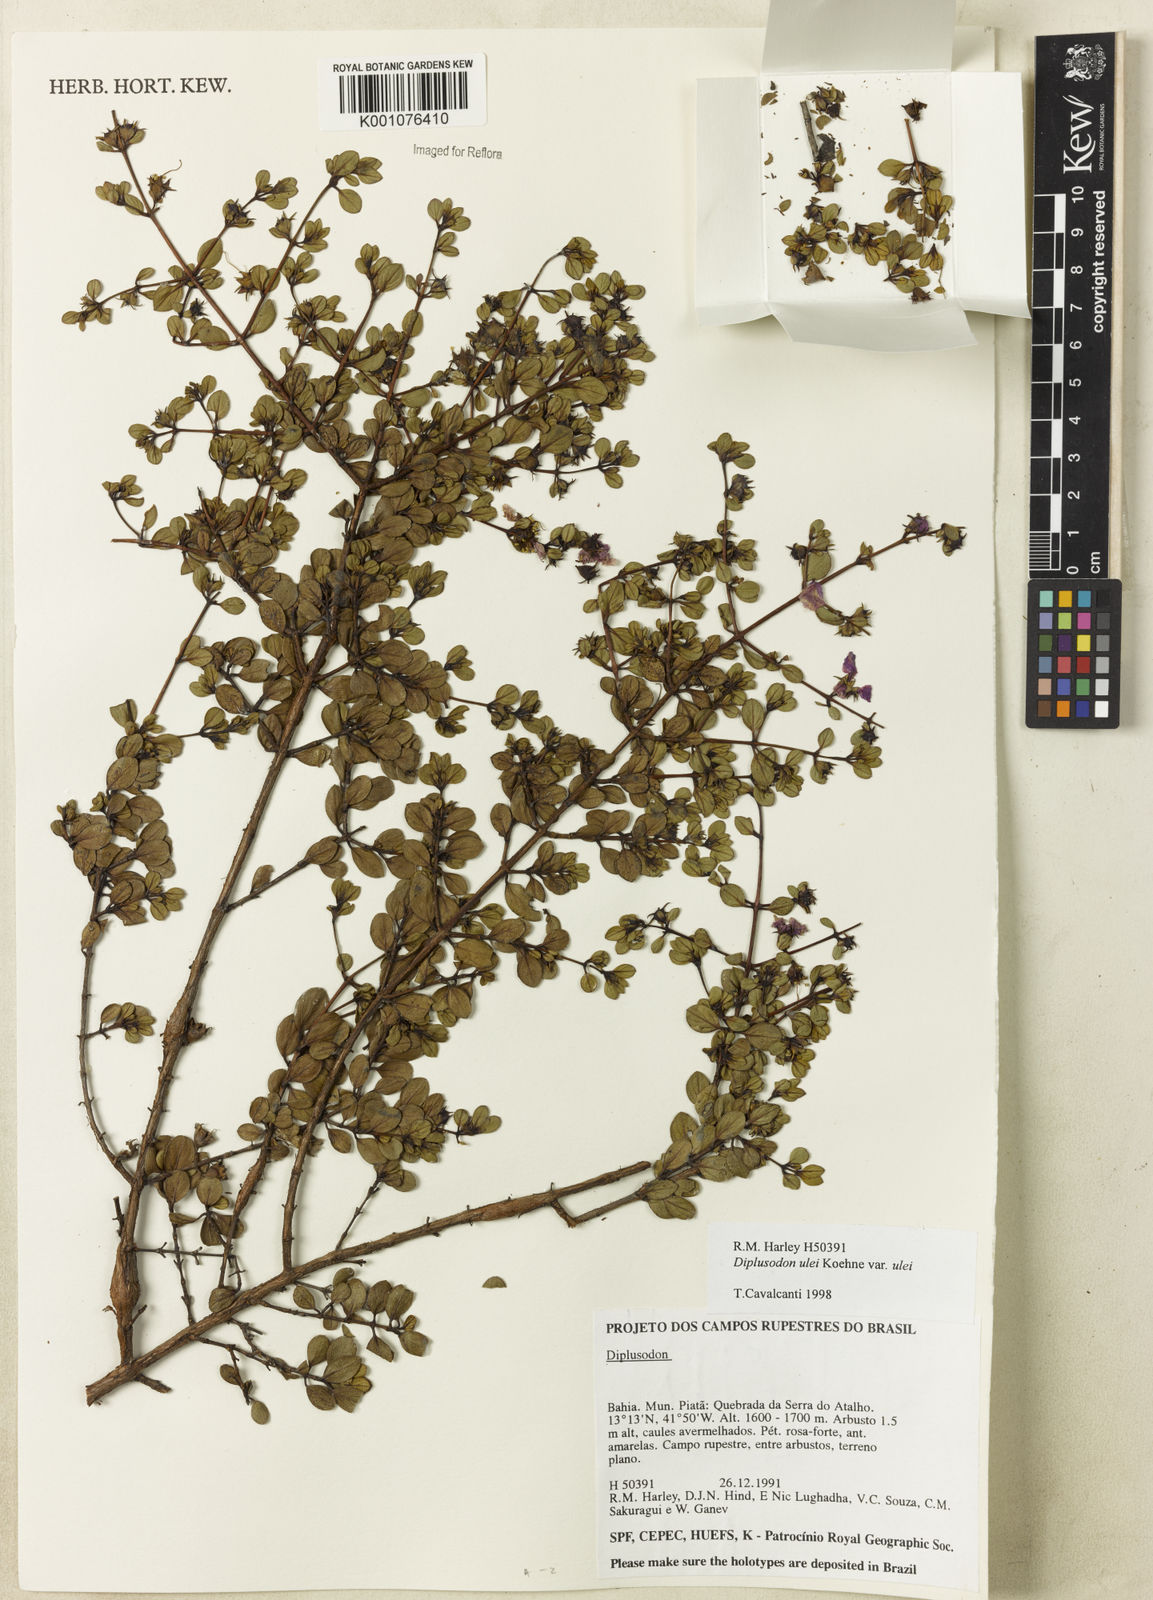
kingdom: Plantae
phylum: Tracheophyta
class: Magnoliopsida
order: Myrtales
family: Lythraceae
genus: Diplusodon
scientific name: Diplusodon ulei
